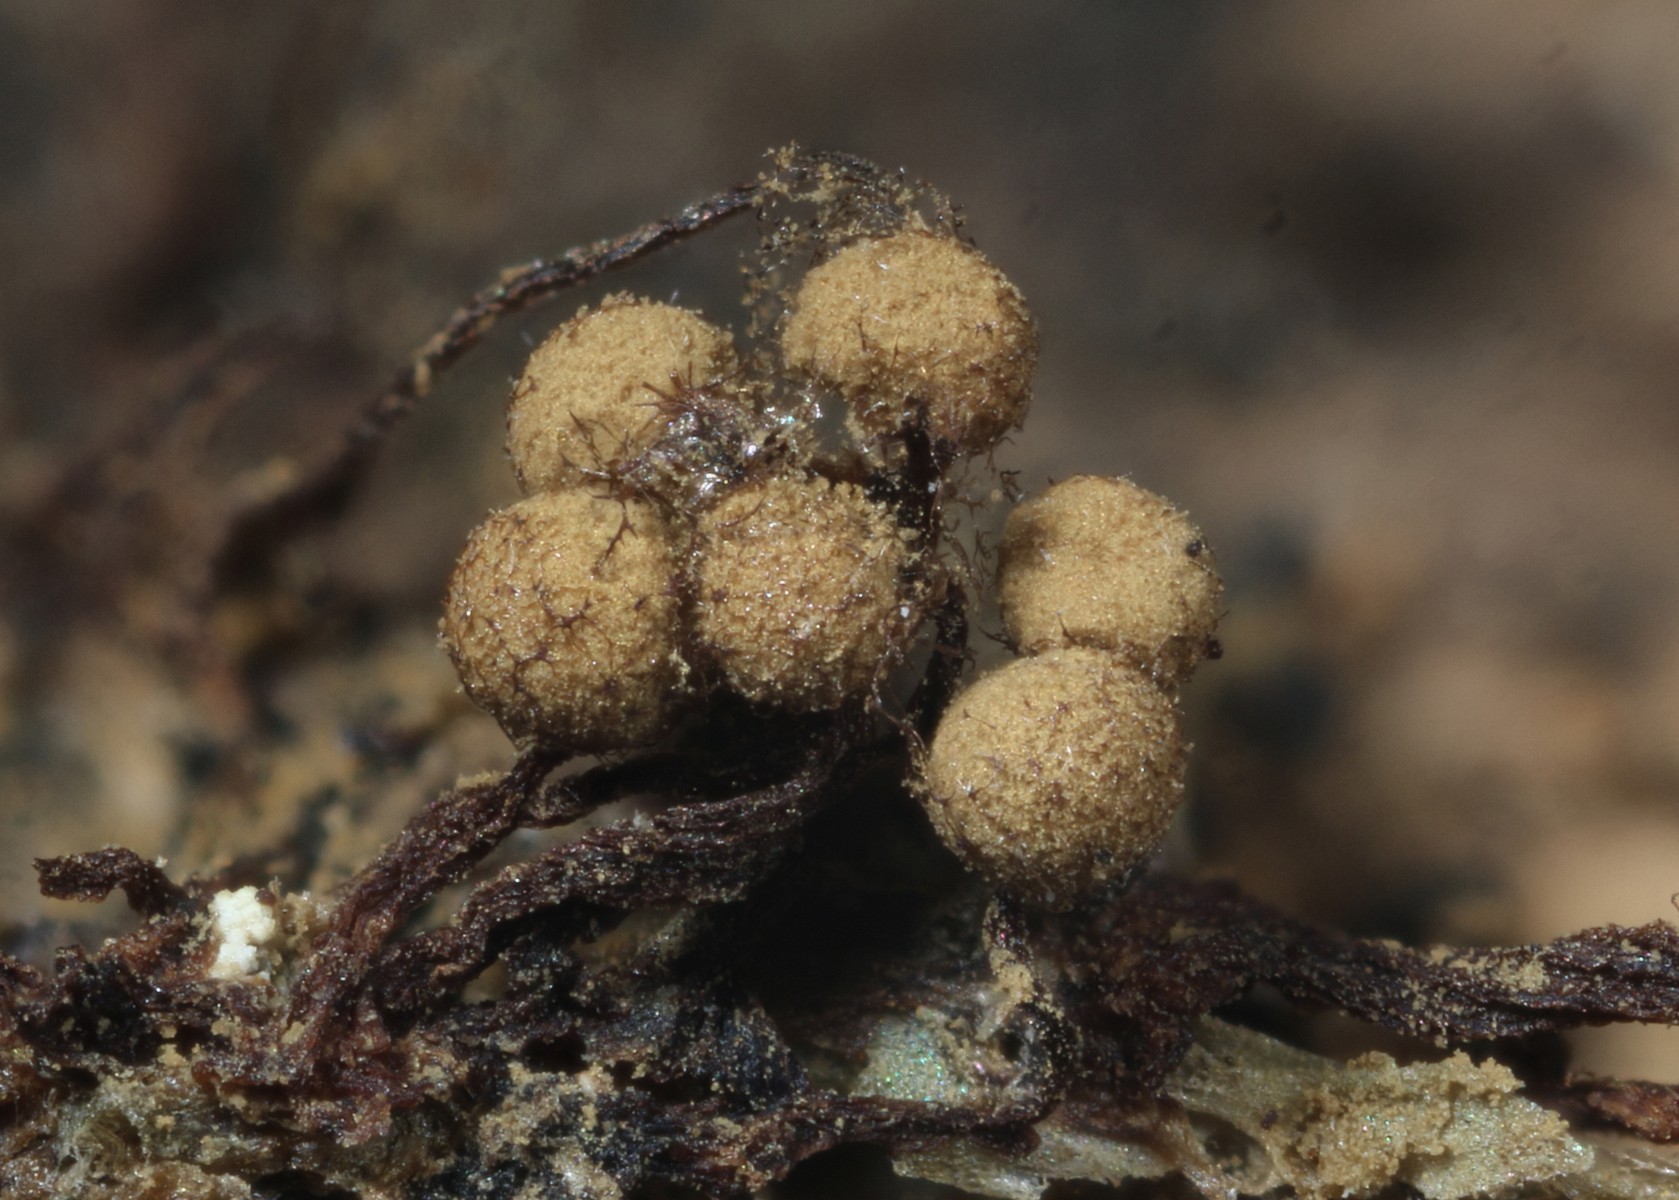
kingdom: Protozoa
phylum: Mycetozoa
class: Myxomycetes
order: Cribrariales
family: Cribrariaceae
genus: Cribraria
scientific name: Cribraria splendens
